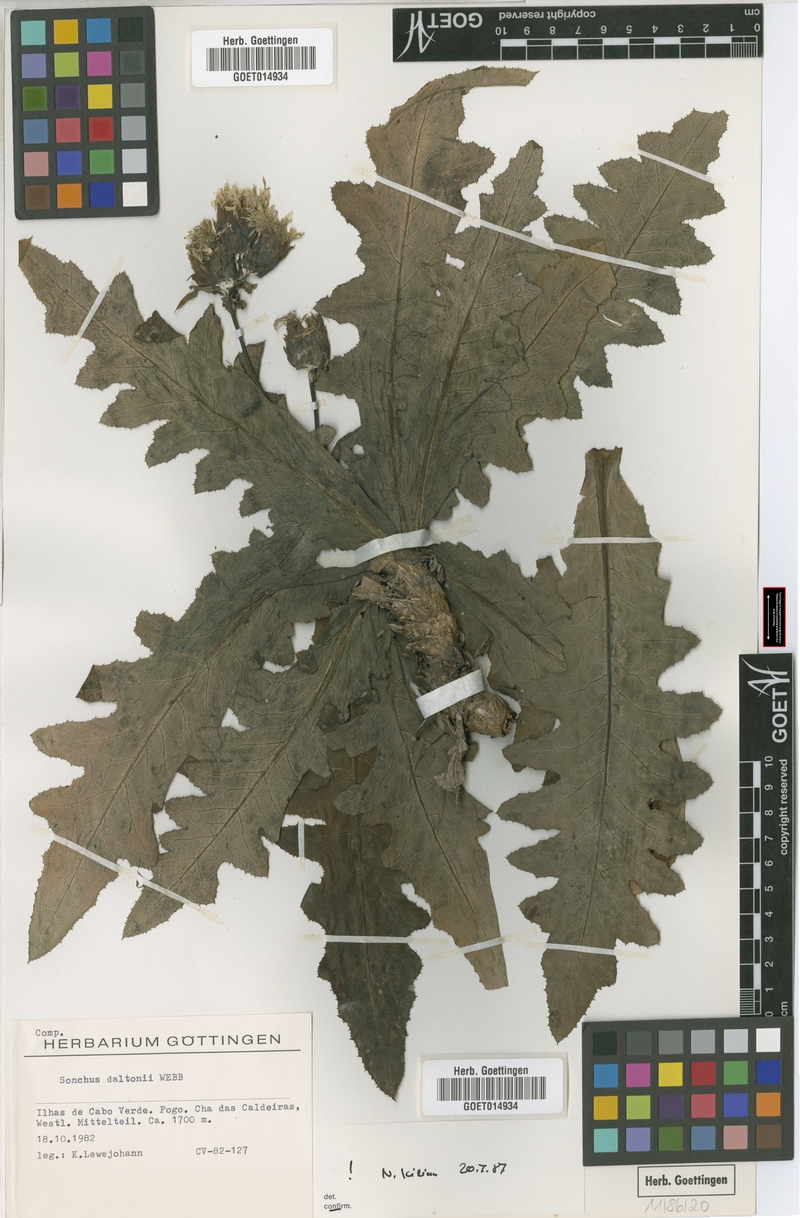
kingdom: Plantae
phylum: Tracheophyta
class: Magnoliopsida
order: Asterales
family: Asteraceae
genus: Sonchus
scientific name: Sonchus daltonii
